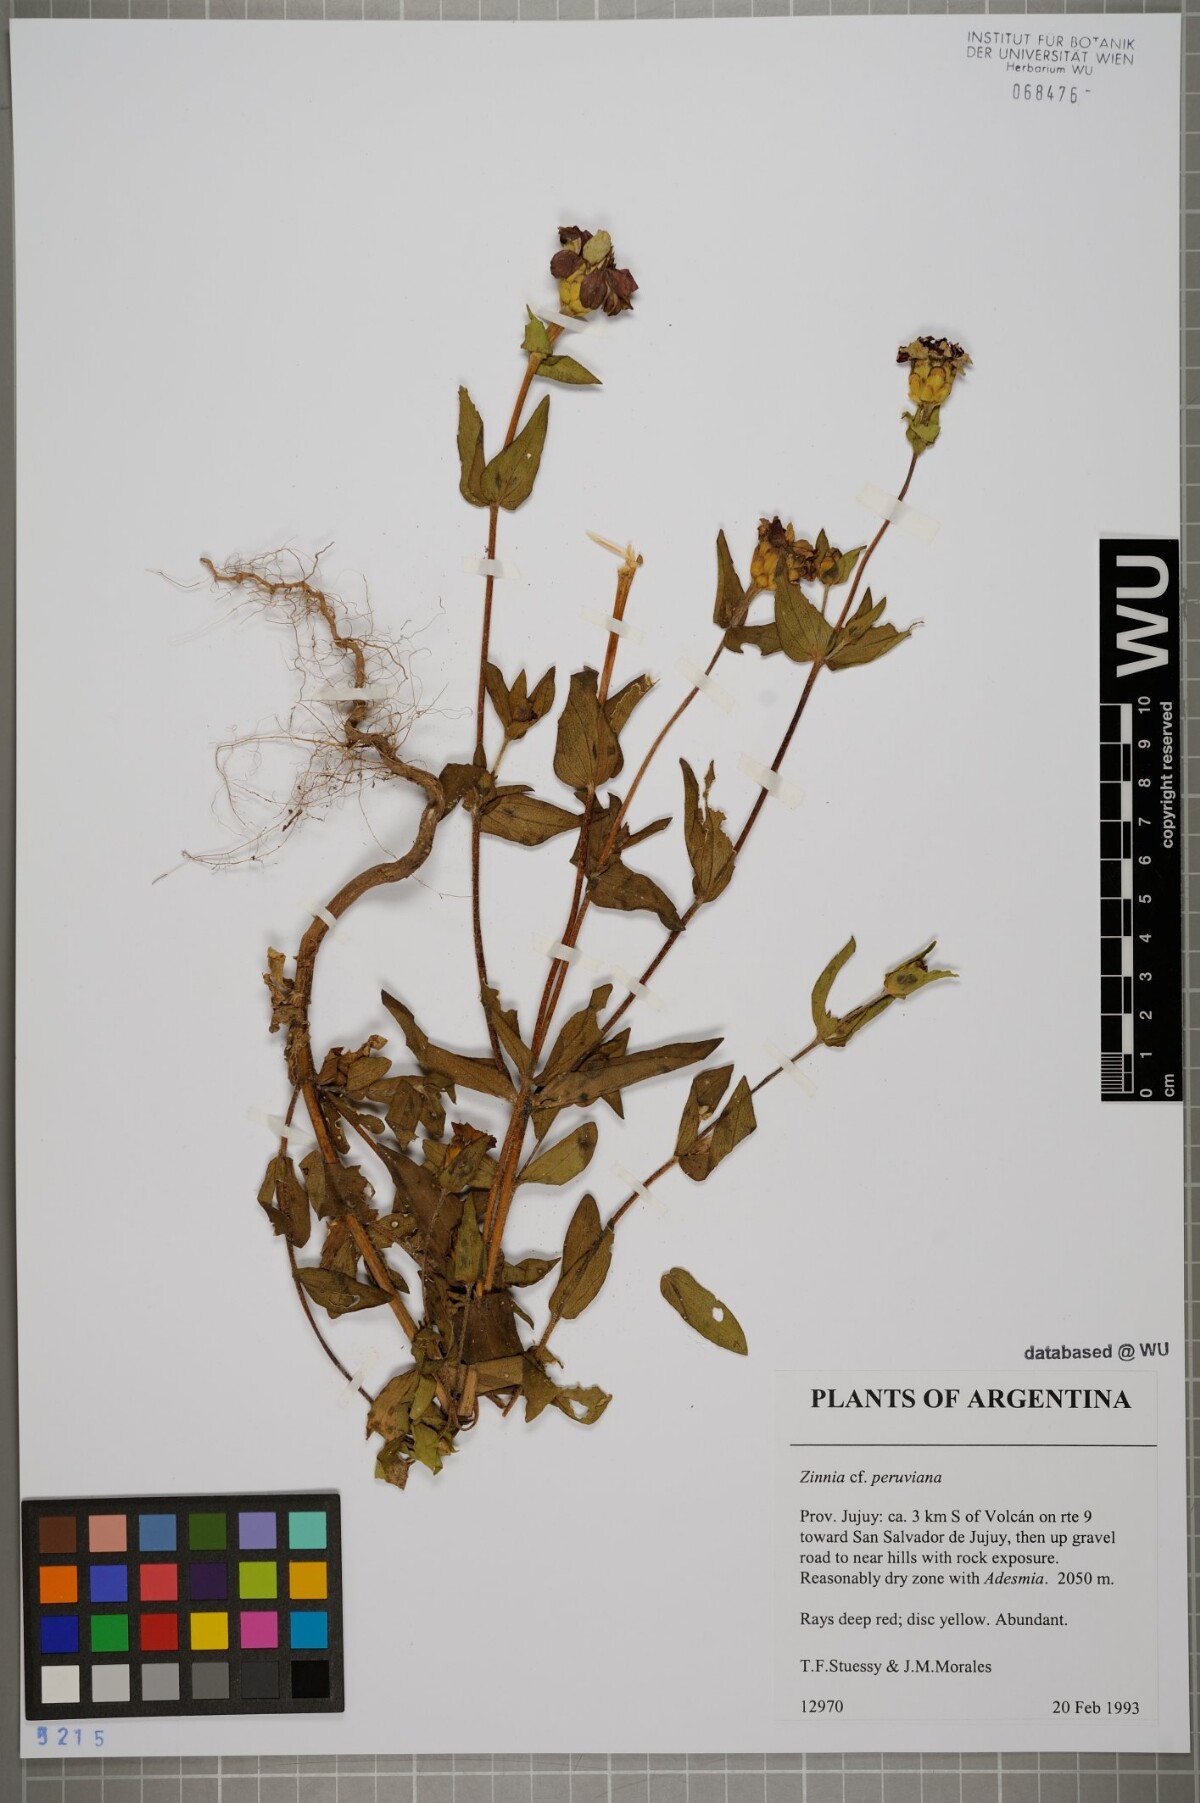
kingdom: Plantae
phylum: Tracheophyta
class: Magnoliopsida
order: Asterales
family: Asteraceae
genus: Zinnia
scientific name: Zinnia peruviana
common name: Peruvian zinnia
